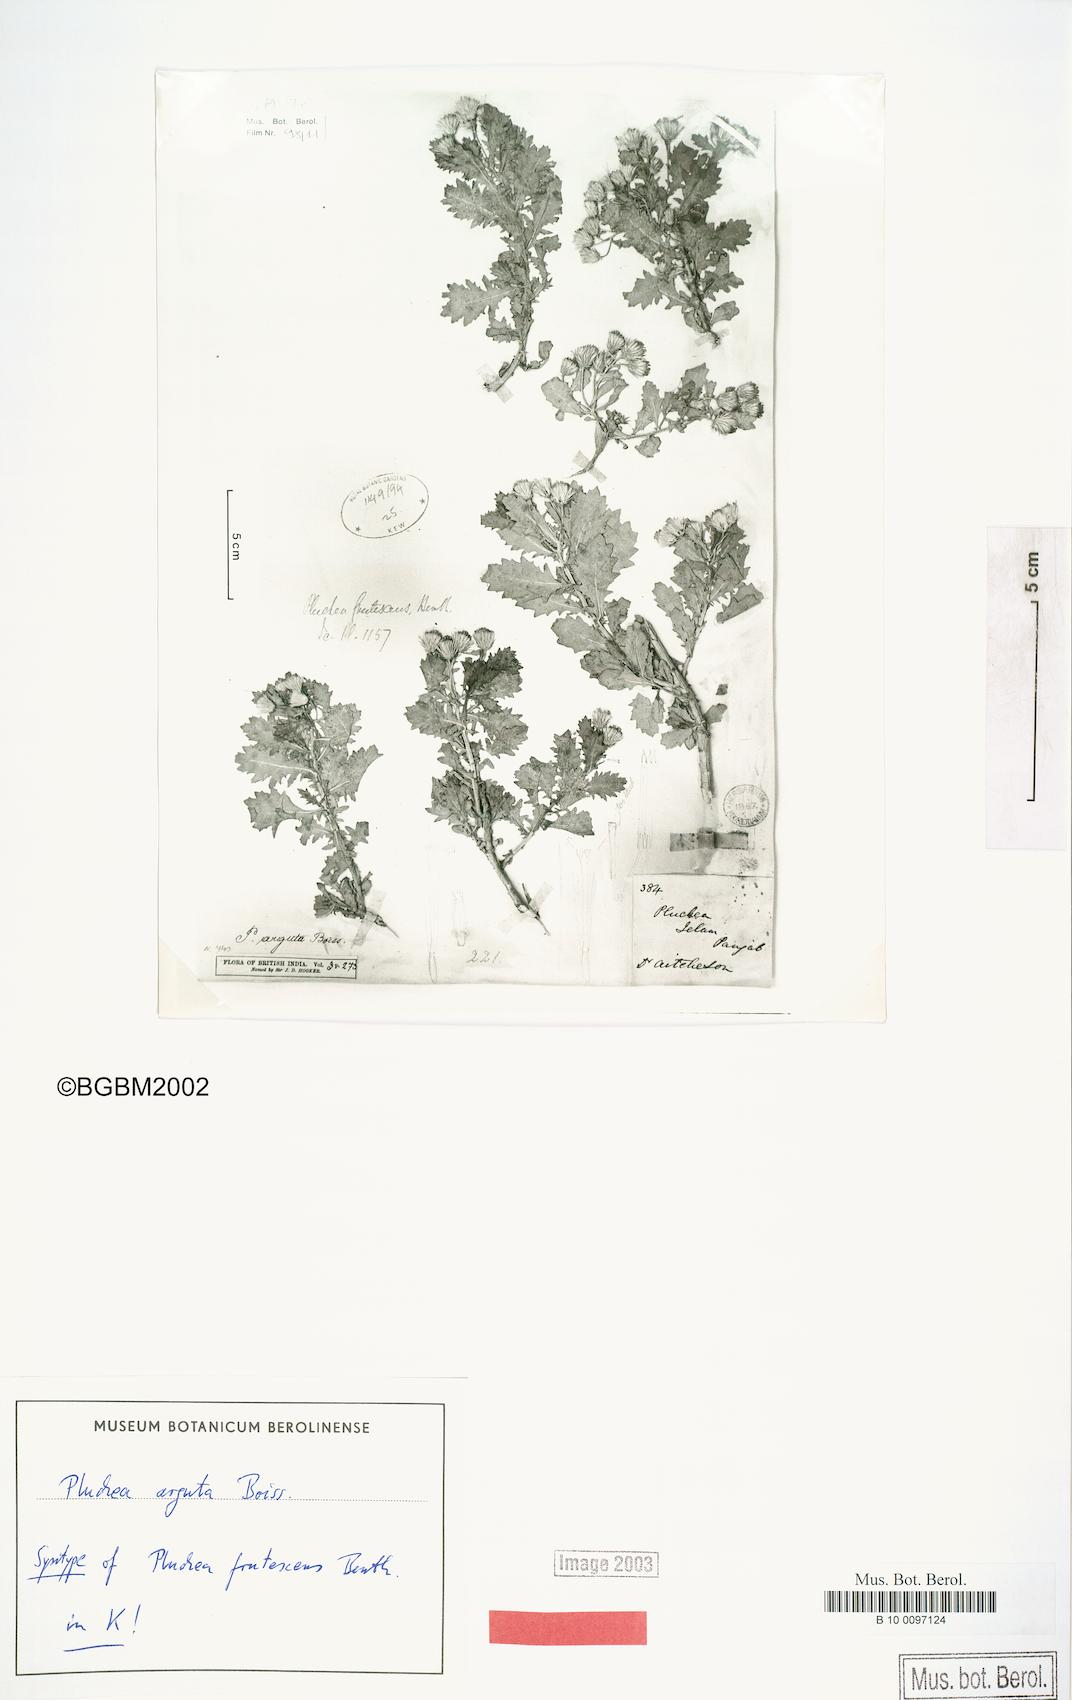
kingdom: Plantae
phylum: Tracheophyta
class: Magnoliopsida
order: Asterales
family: Asteraceae
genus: Pluchea
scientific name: Pluchea arguta
